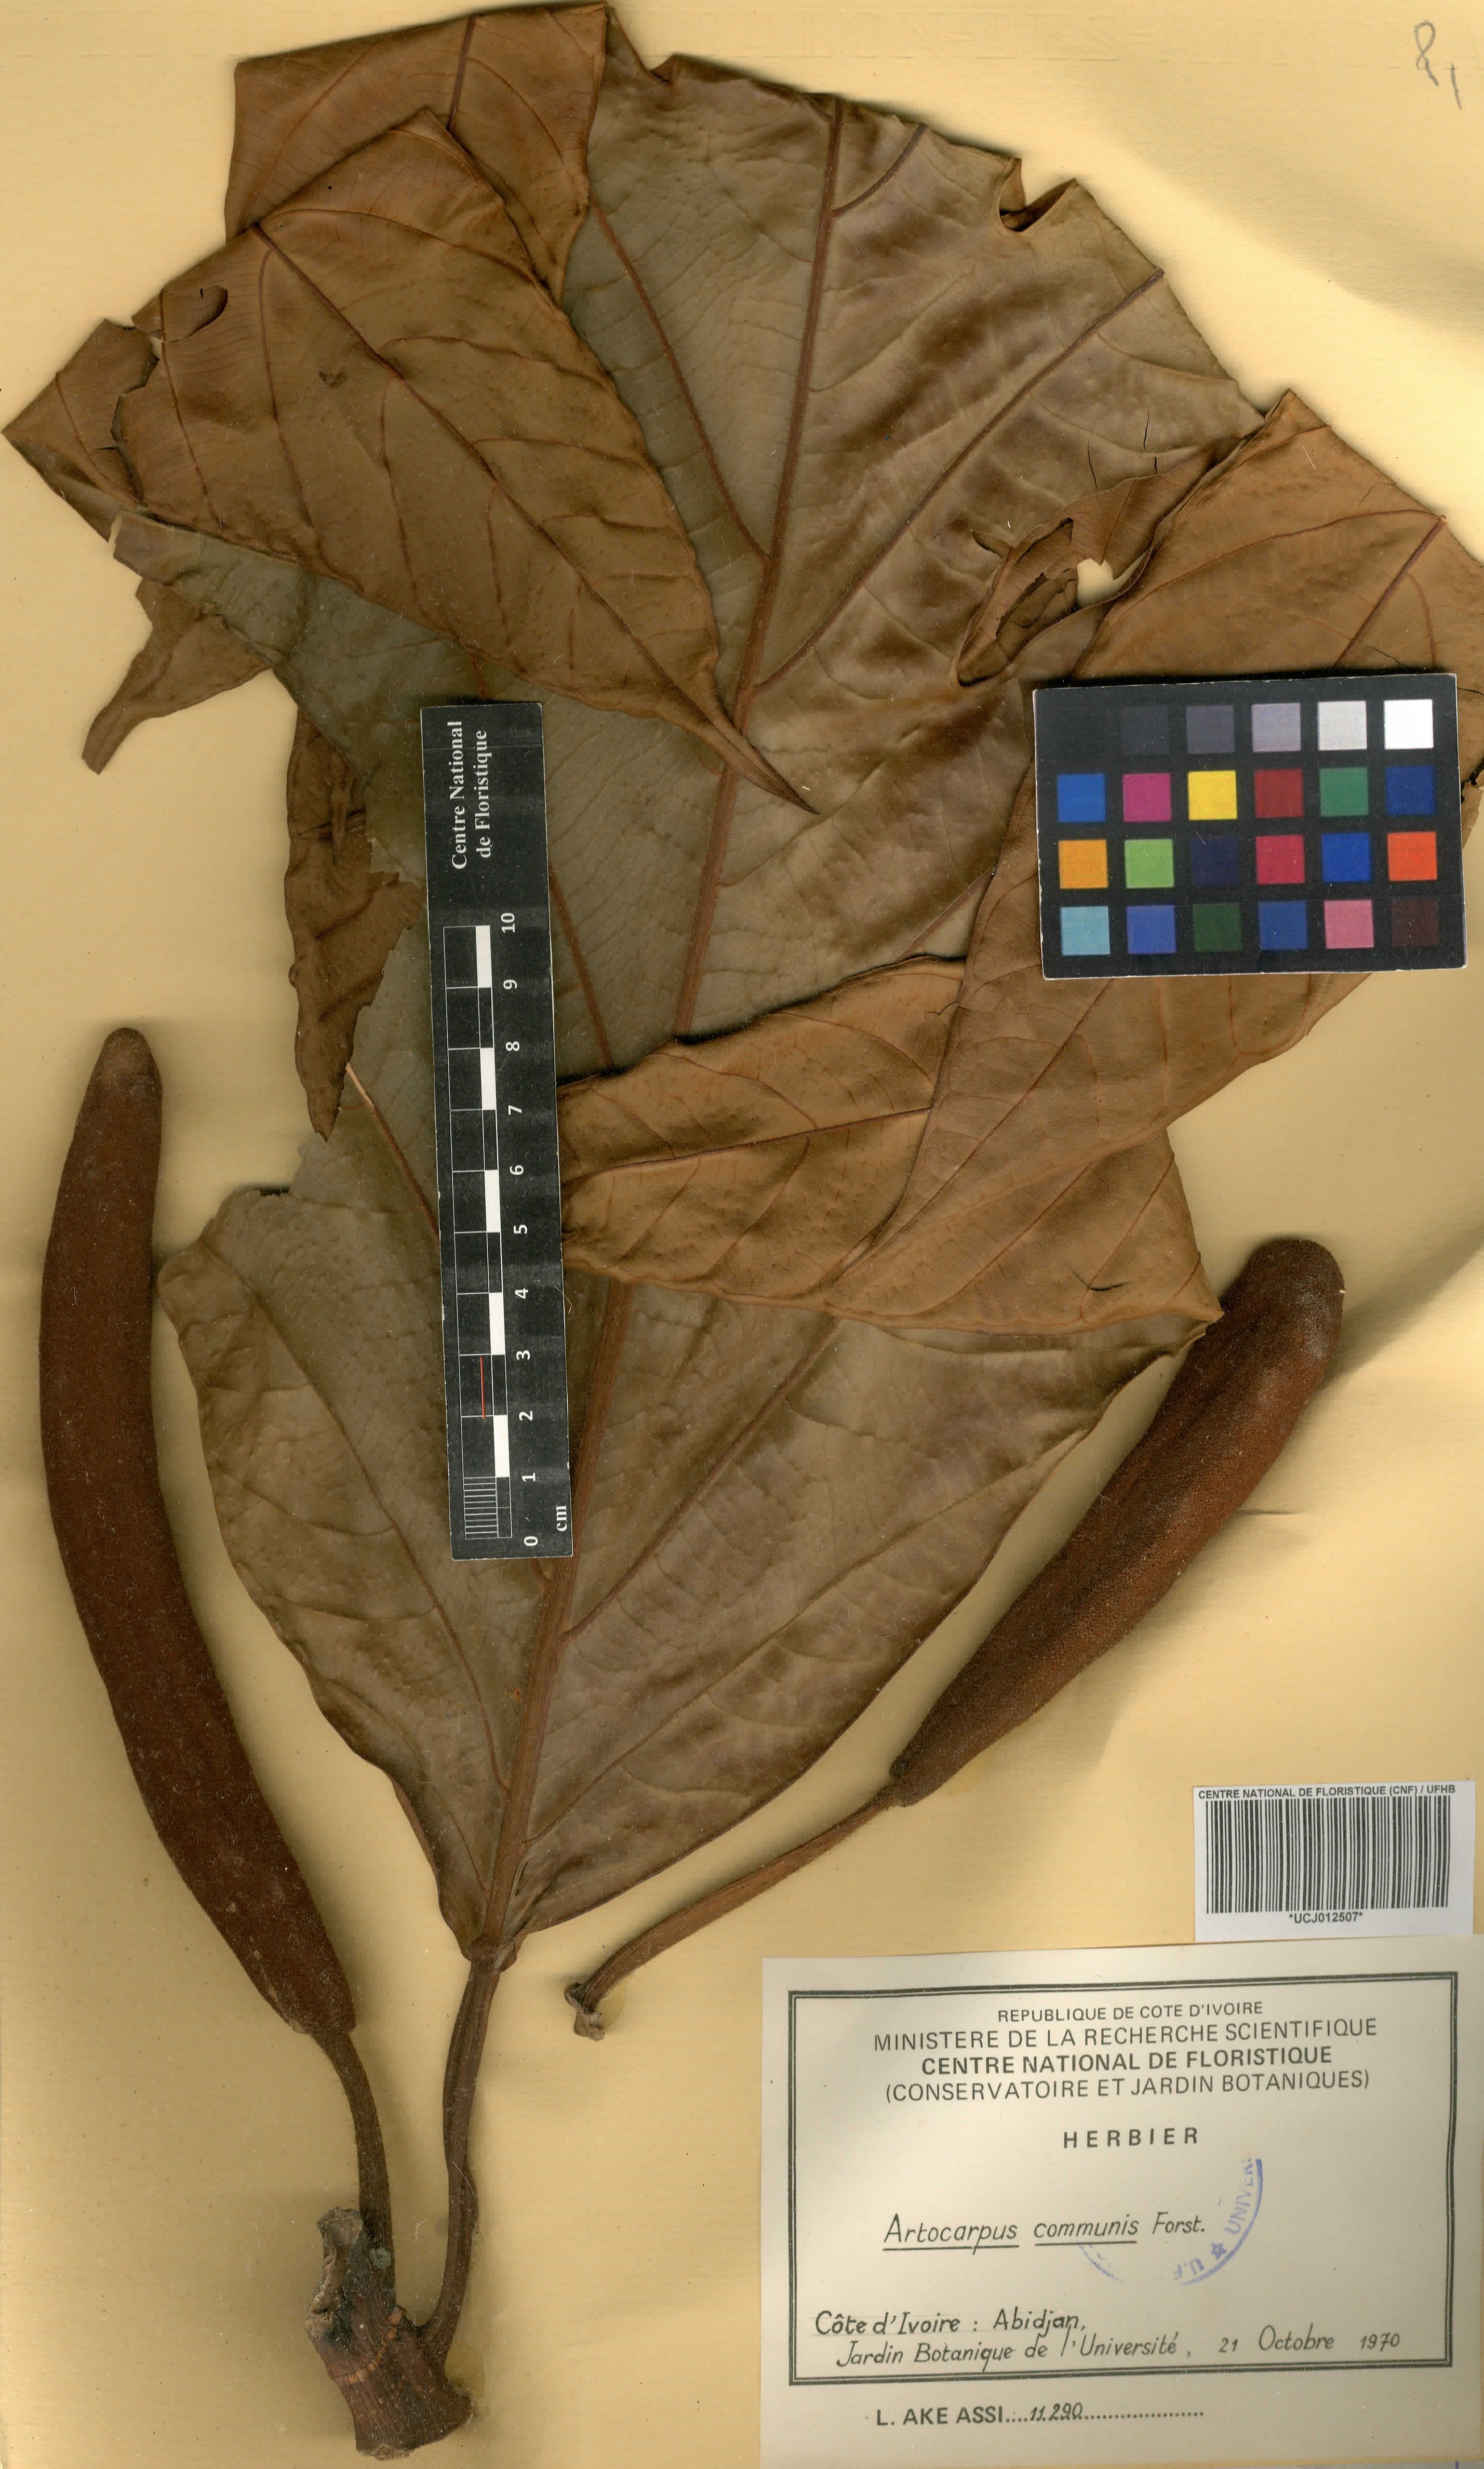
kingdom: Plantae
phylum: Tracheophyta
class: Magnoliopsida
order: Rosales
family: Moraceae
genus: Artocarpus
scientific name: Artocarpus altilis
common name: Breadfruit
